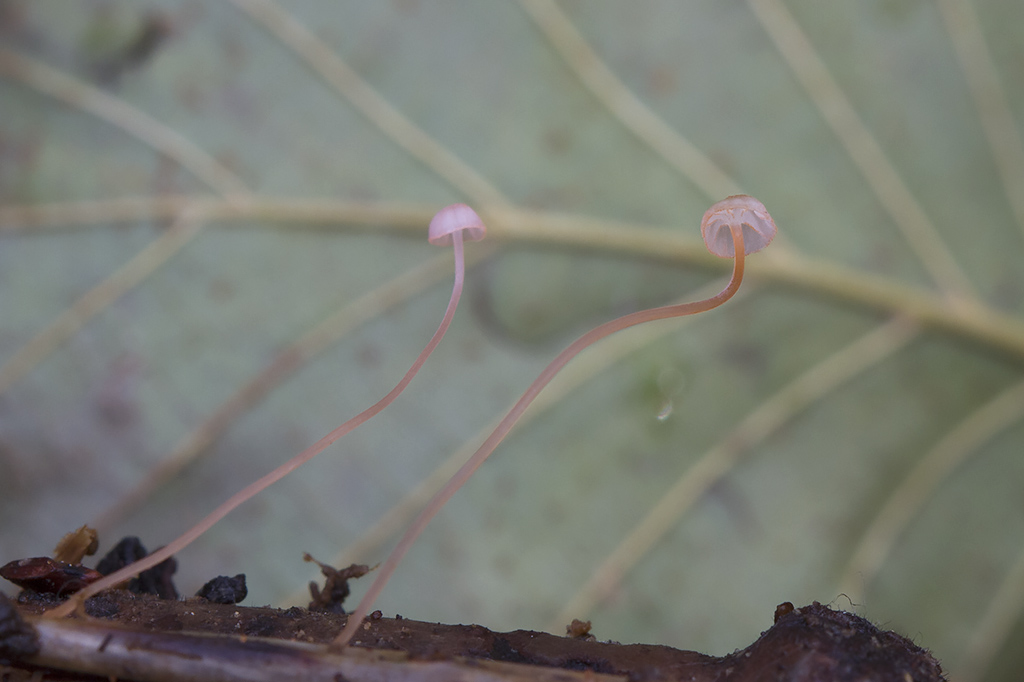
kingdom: Fungi
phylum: Basidiomycota
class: Agaricomycetes
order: Agaricales
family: Mycenaceae
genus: Mycena
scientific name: Mycena pterigena
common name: bregne-huesvamp
